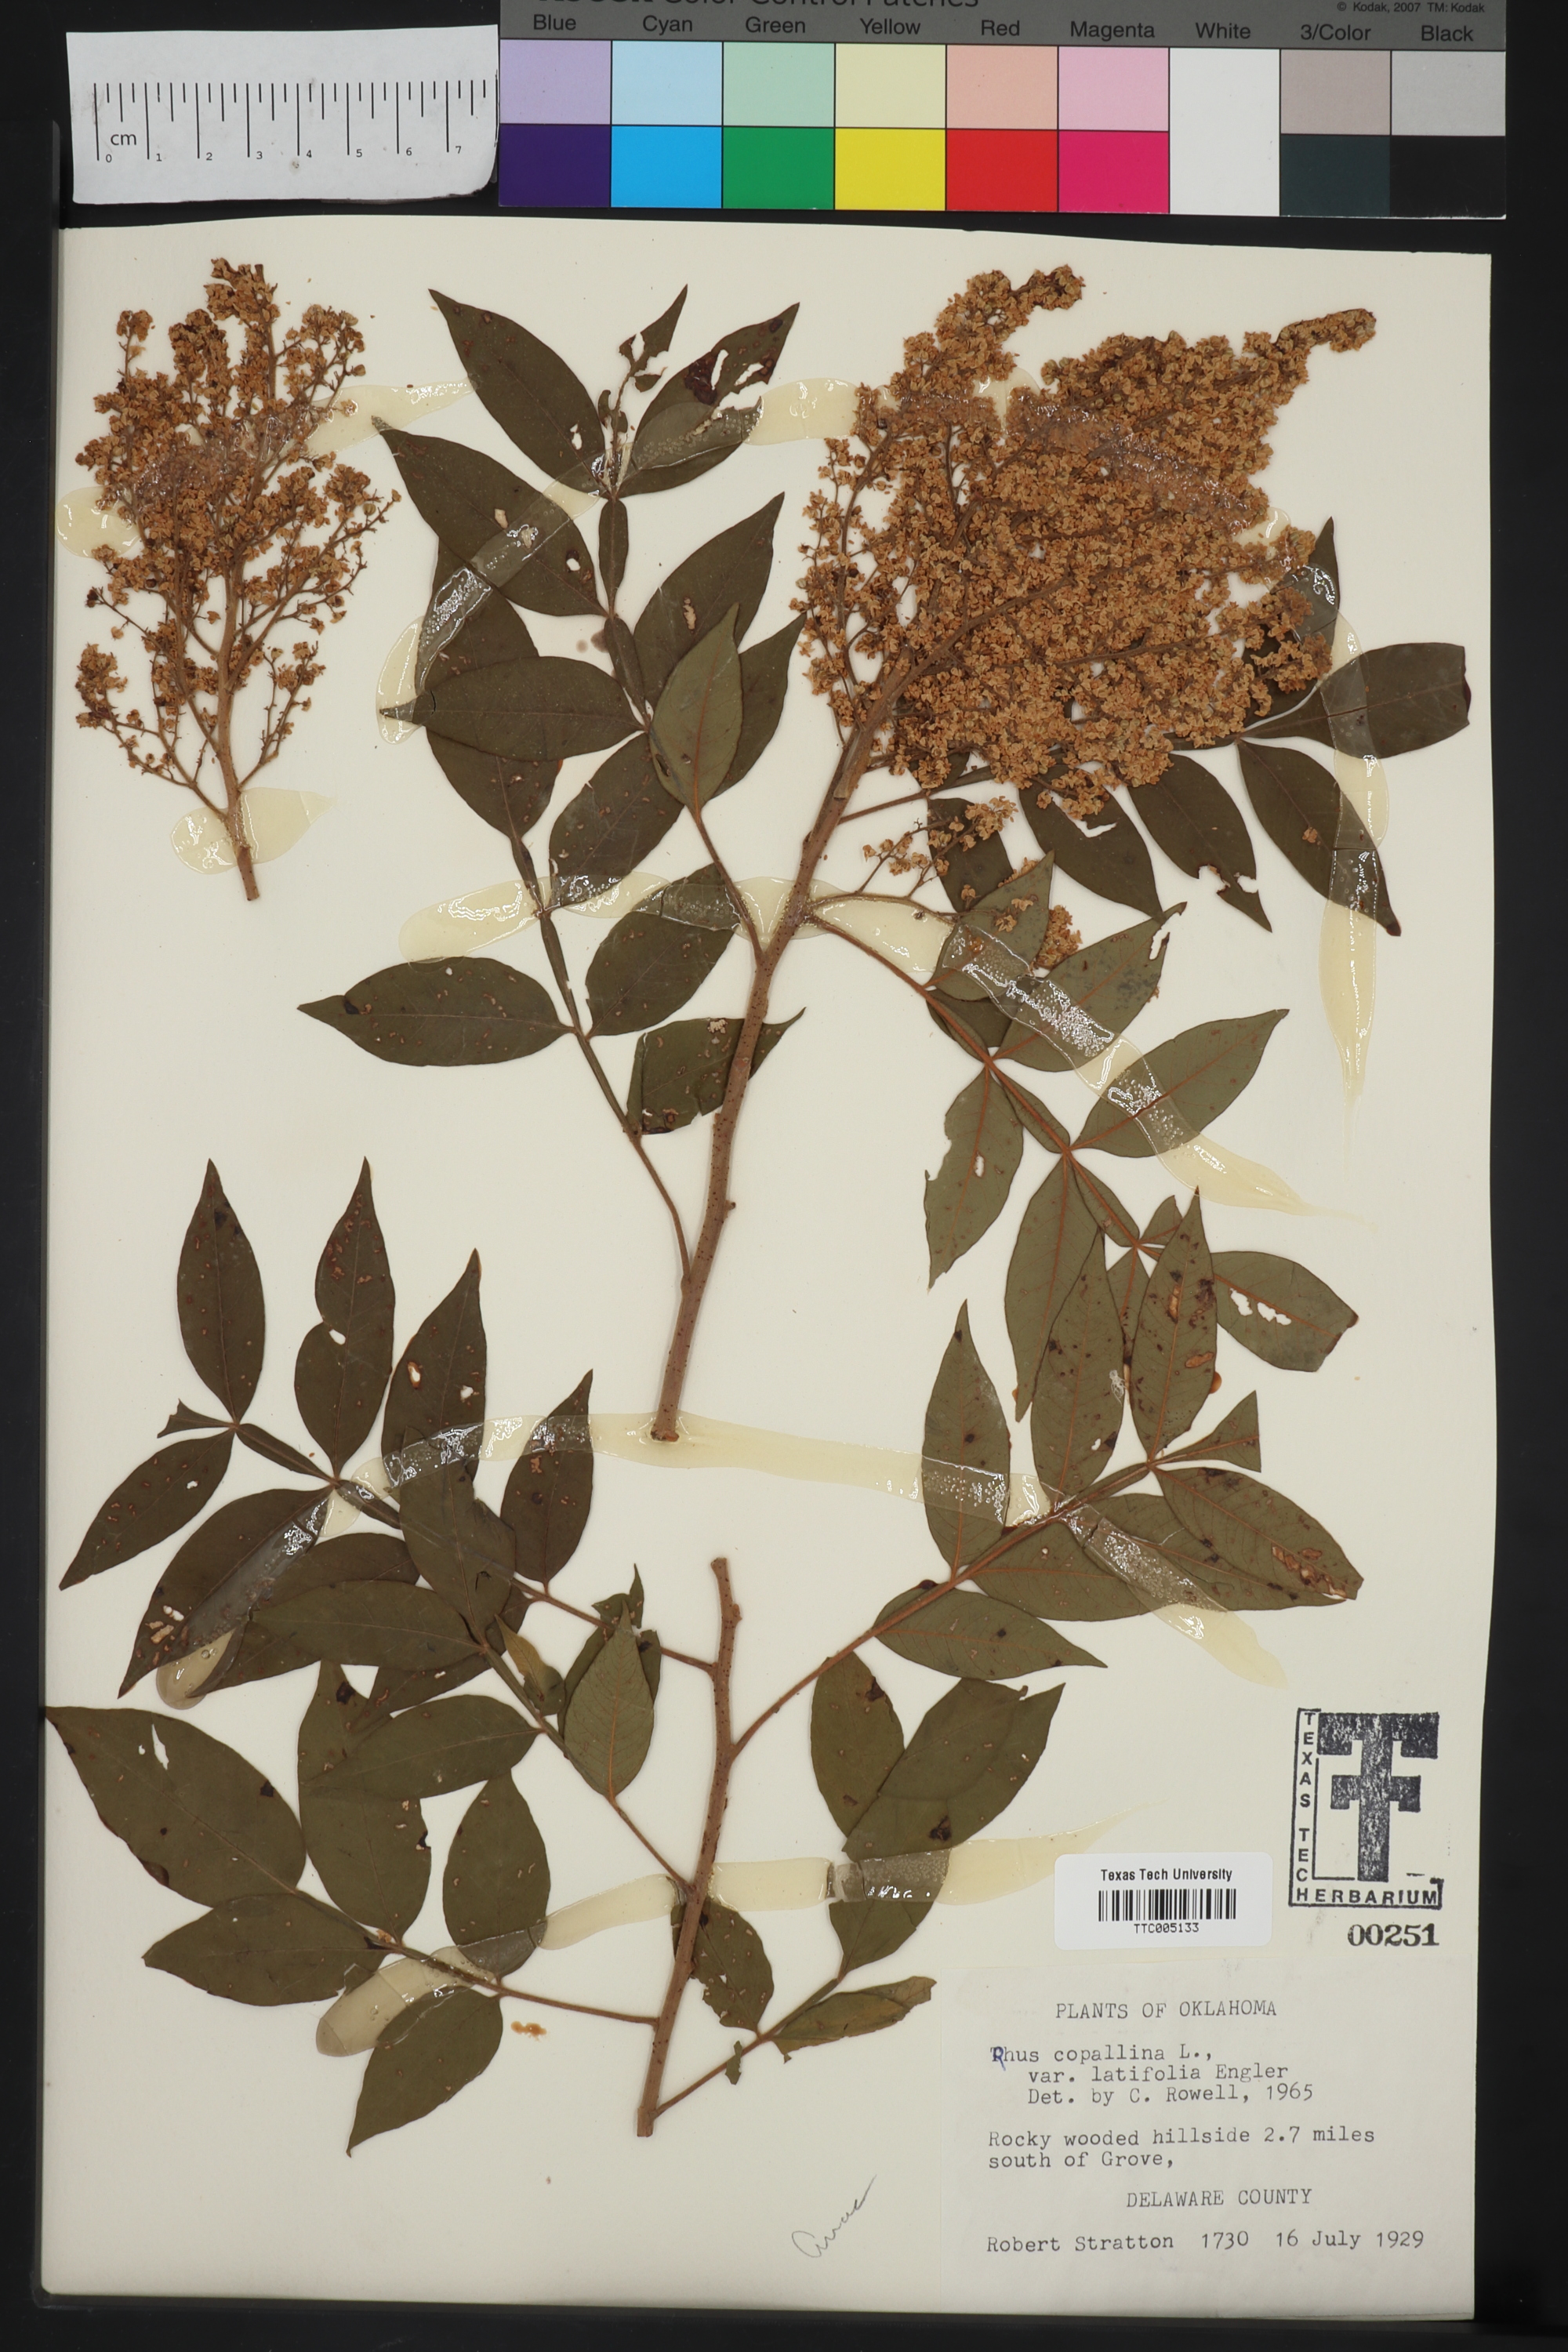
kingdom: Plantae
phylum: Tracheophyta
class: Magnoliopsida
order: Sapindales
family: Anacardiaceae
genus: Rhus
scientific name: Rhus copallina
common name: Shining sumac
